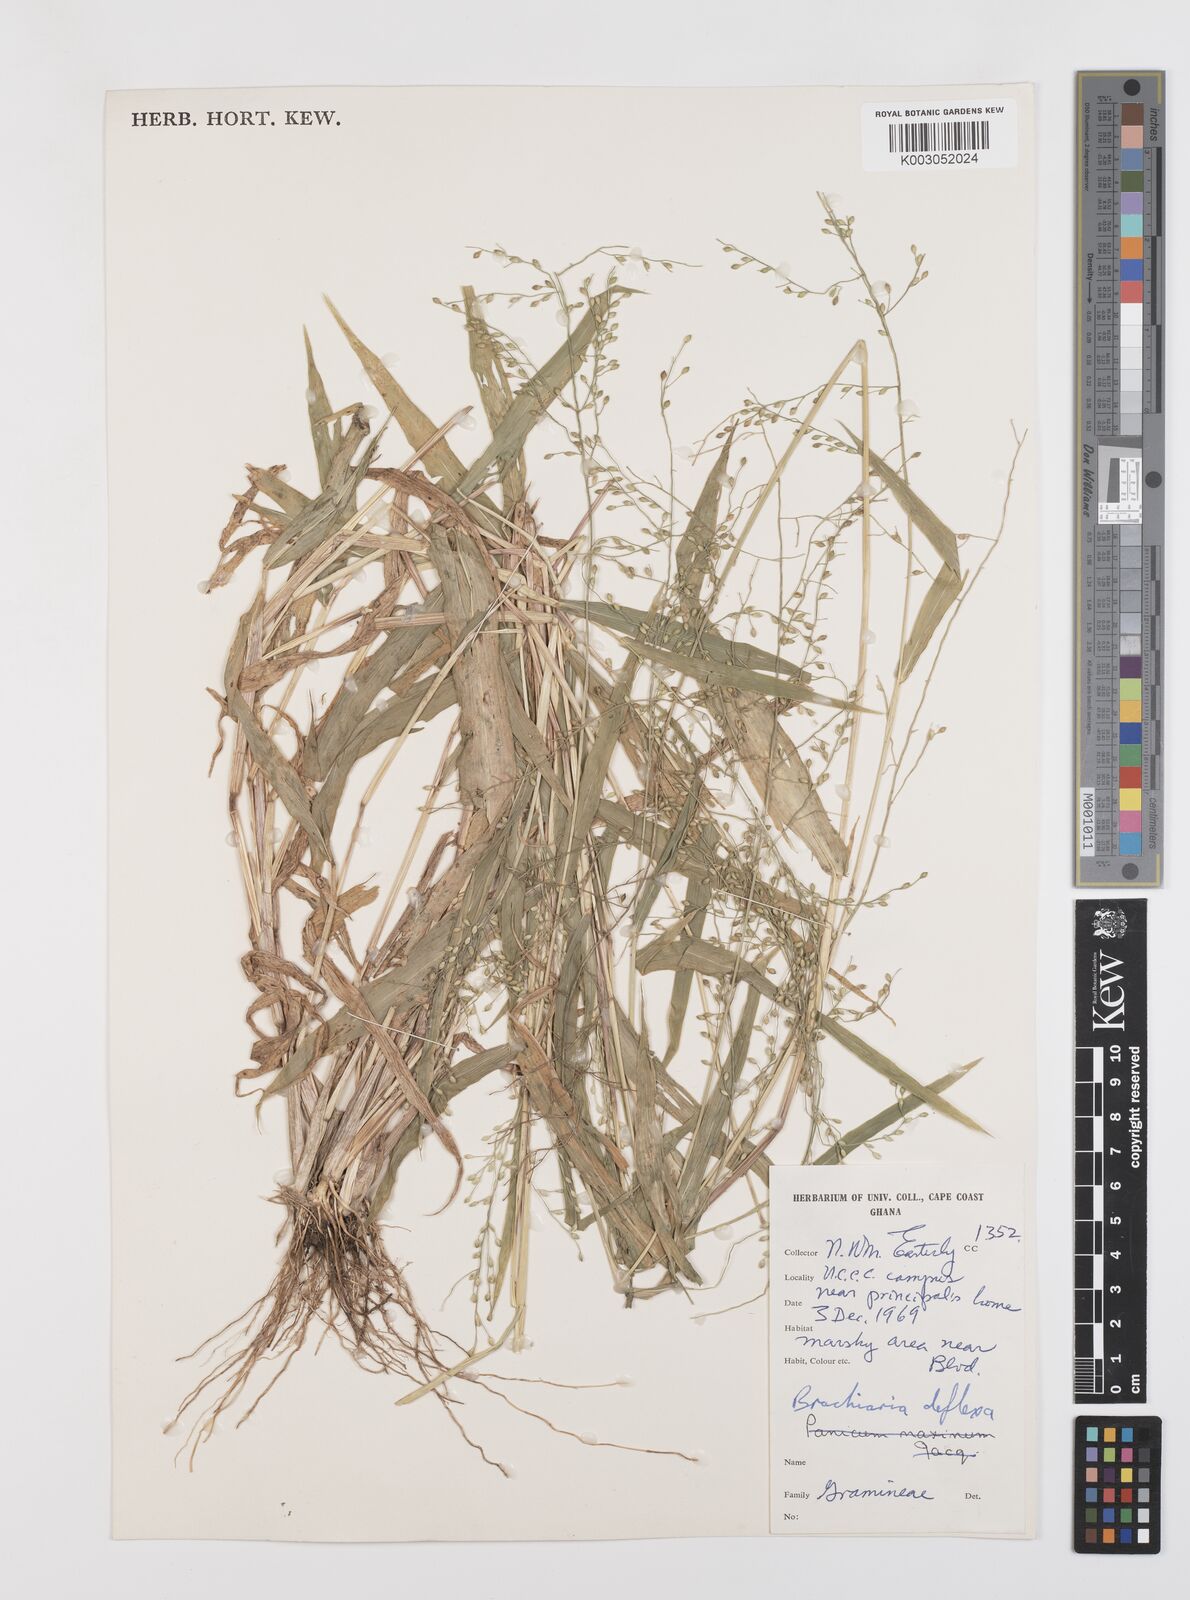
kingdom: Plantae
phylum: Tracheophyta
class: Liliopsida
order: Poales
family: Poaceae
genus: Urochloa
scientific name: Urochloa deflexa
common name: Guinea millet
